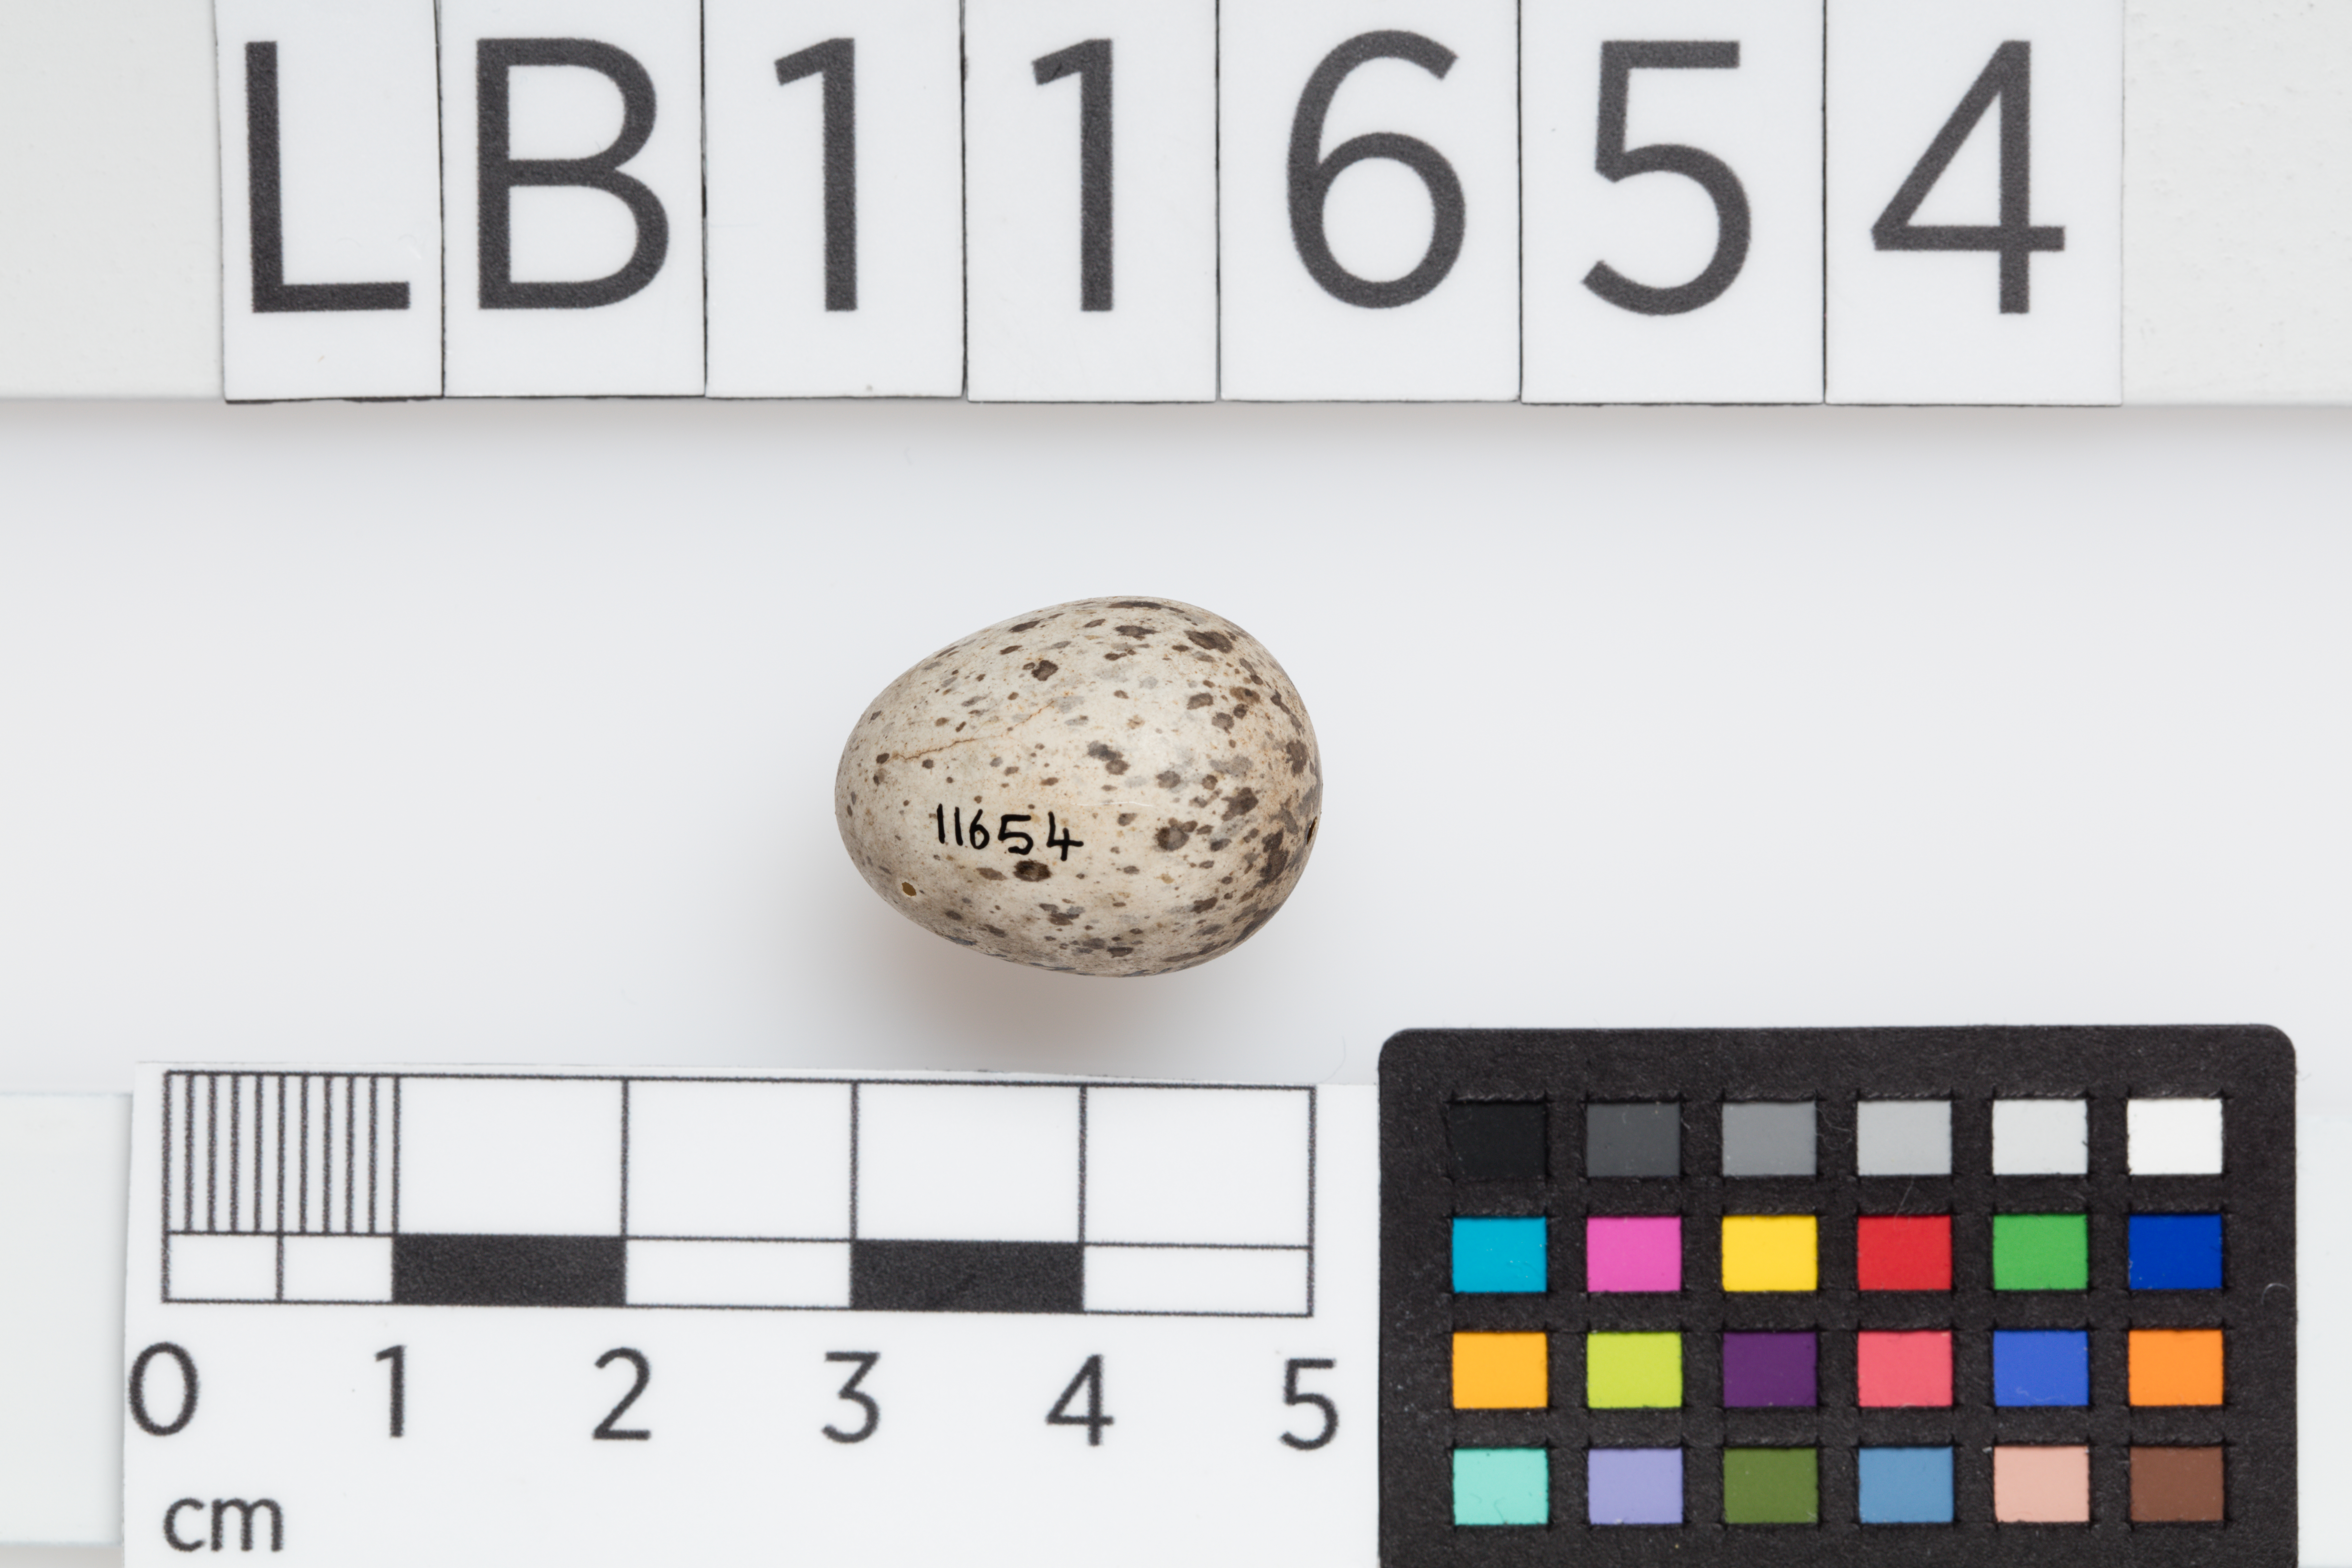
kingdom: Animalia
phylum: Chordata
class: Aves
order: Passeriformes
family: Passeridae
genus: Passer
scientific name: Passer domesticus
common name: House sparrow
